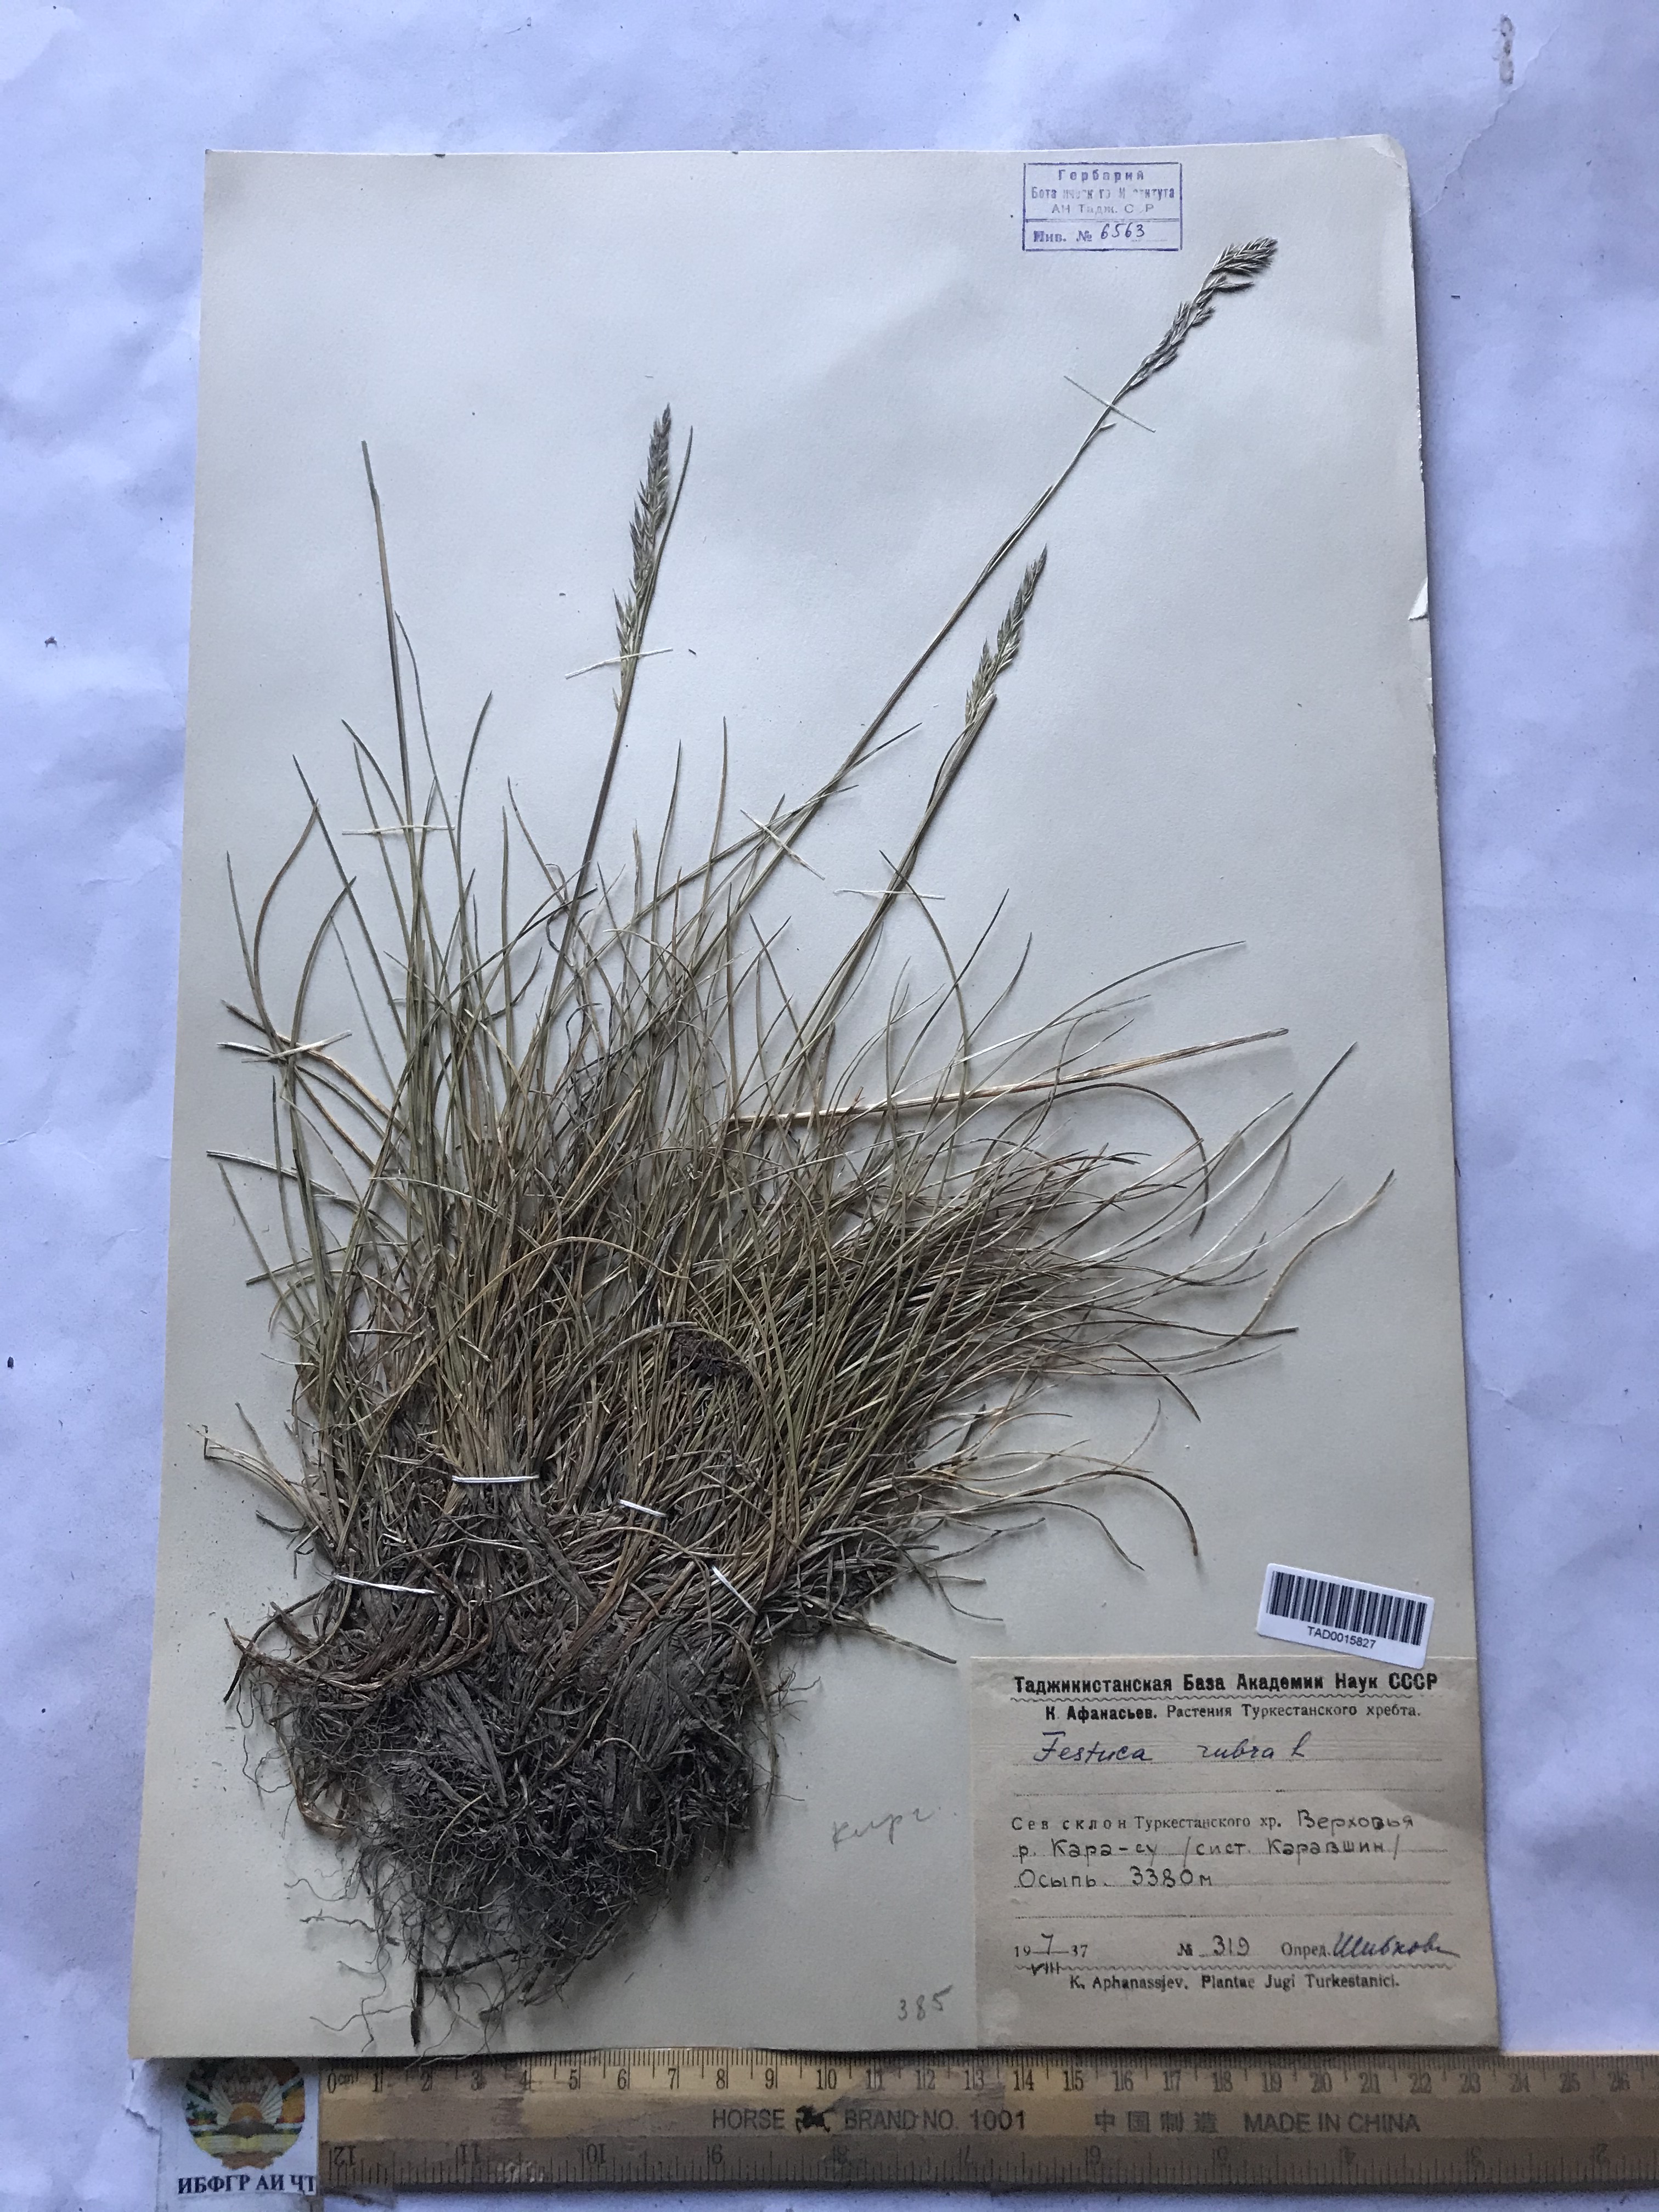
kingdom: Plantae
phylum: Tracheophyta
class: Liliopsida
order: Poales
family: Poaceae
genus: Festuca
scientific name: Festuca rubra
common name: Red fescue
